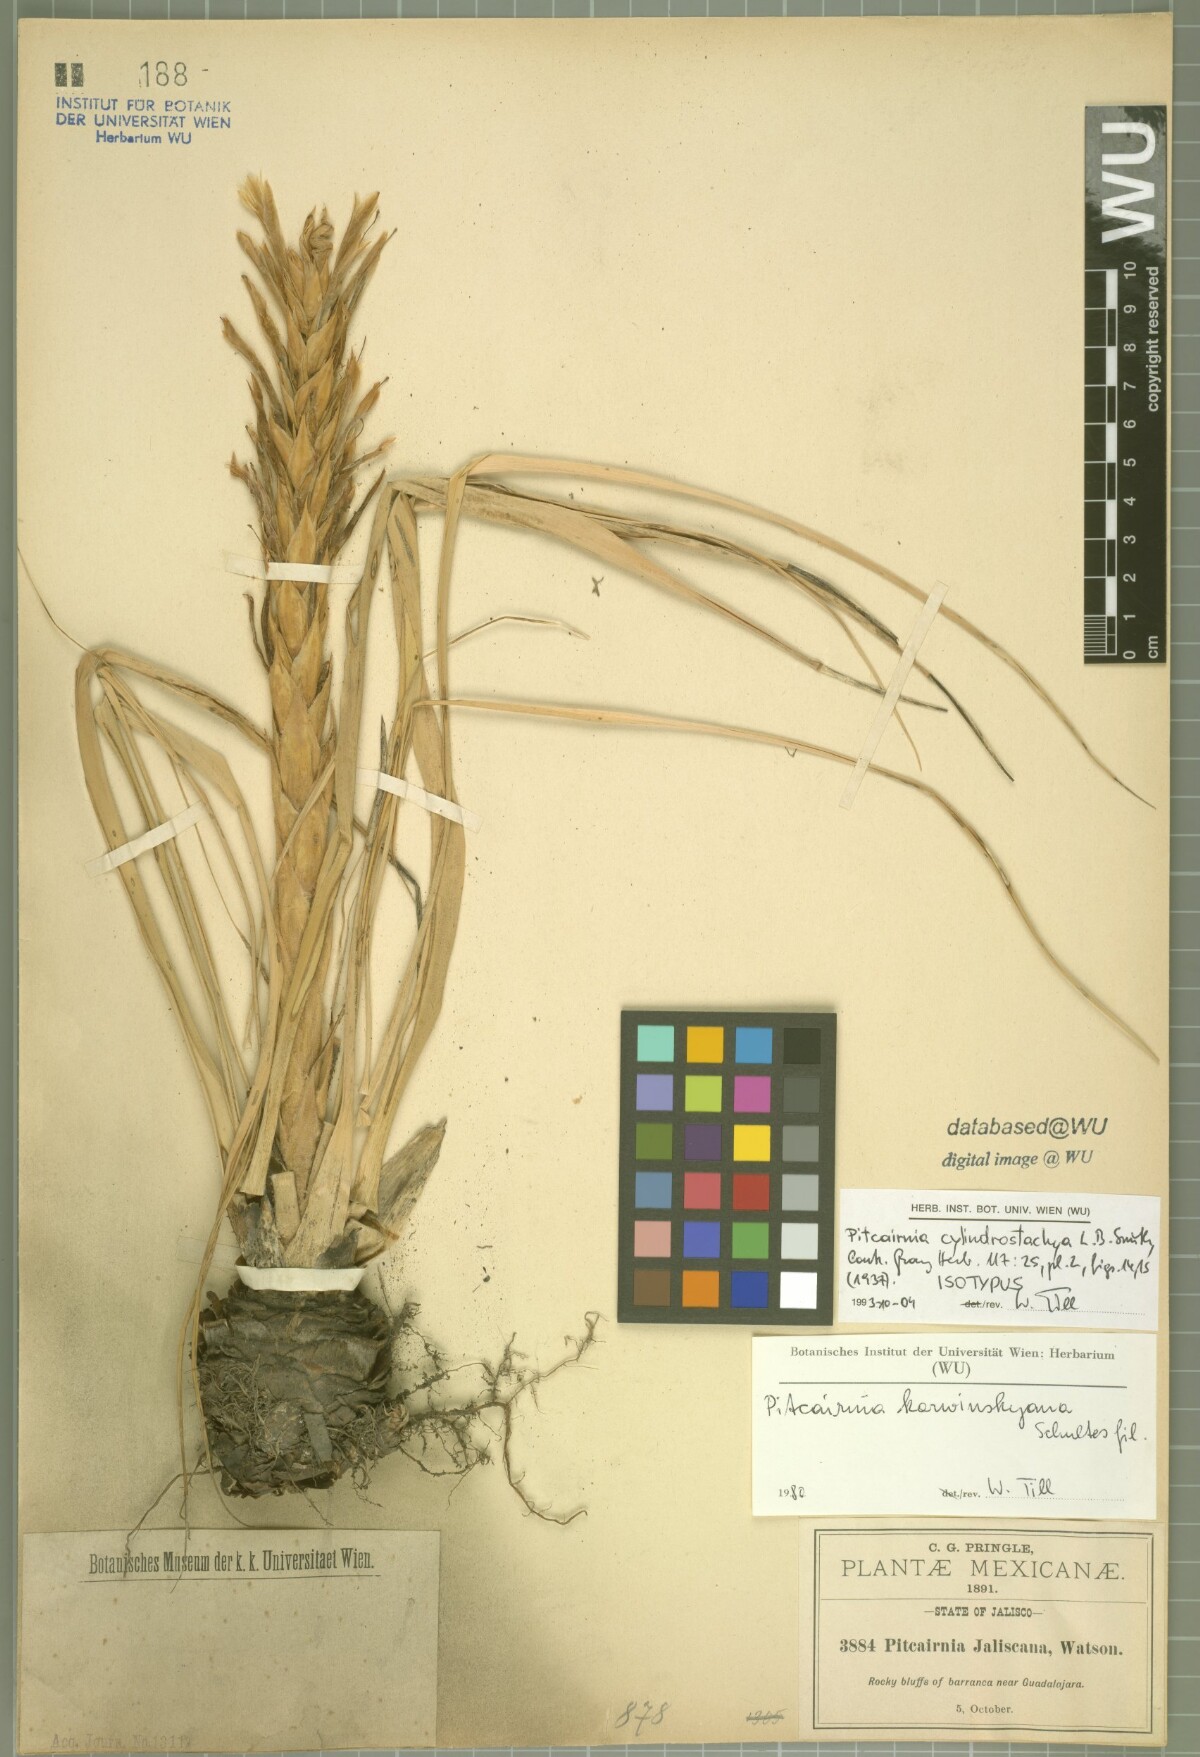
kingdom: Plantae
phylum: Tracheophyta
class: Liliopsida
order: Poales
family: Bromeliaceae
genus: Pitcairnia
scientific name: Pitcairnia cylindrostachya
